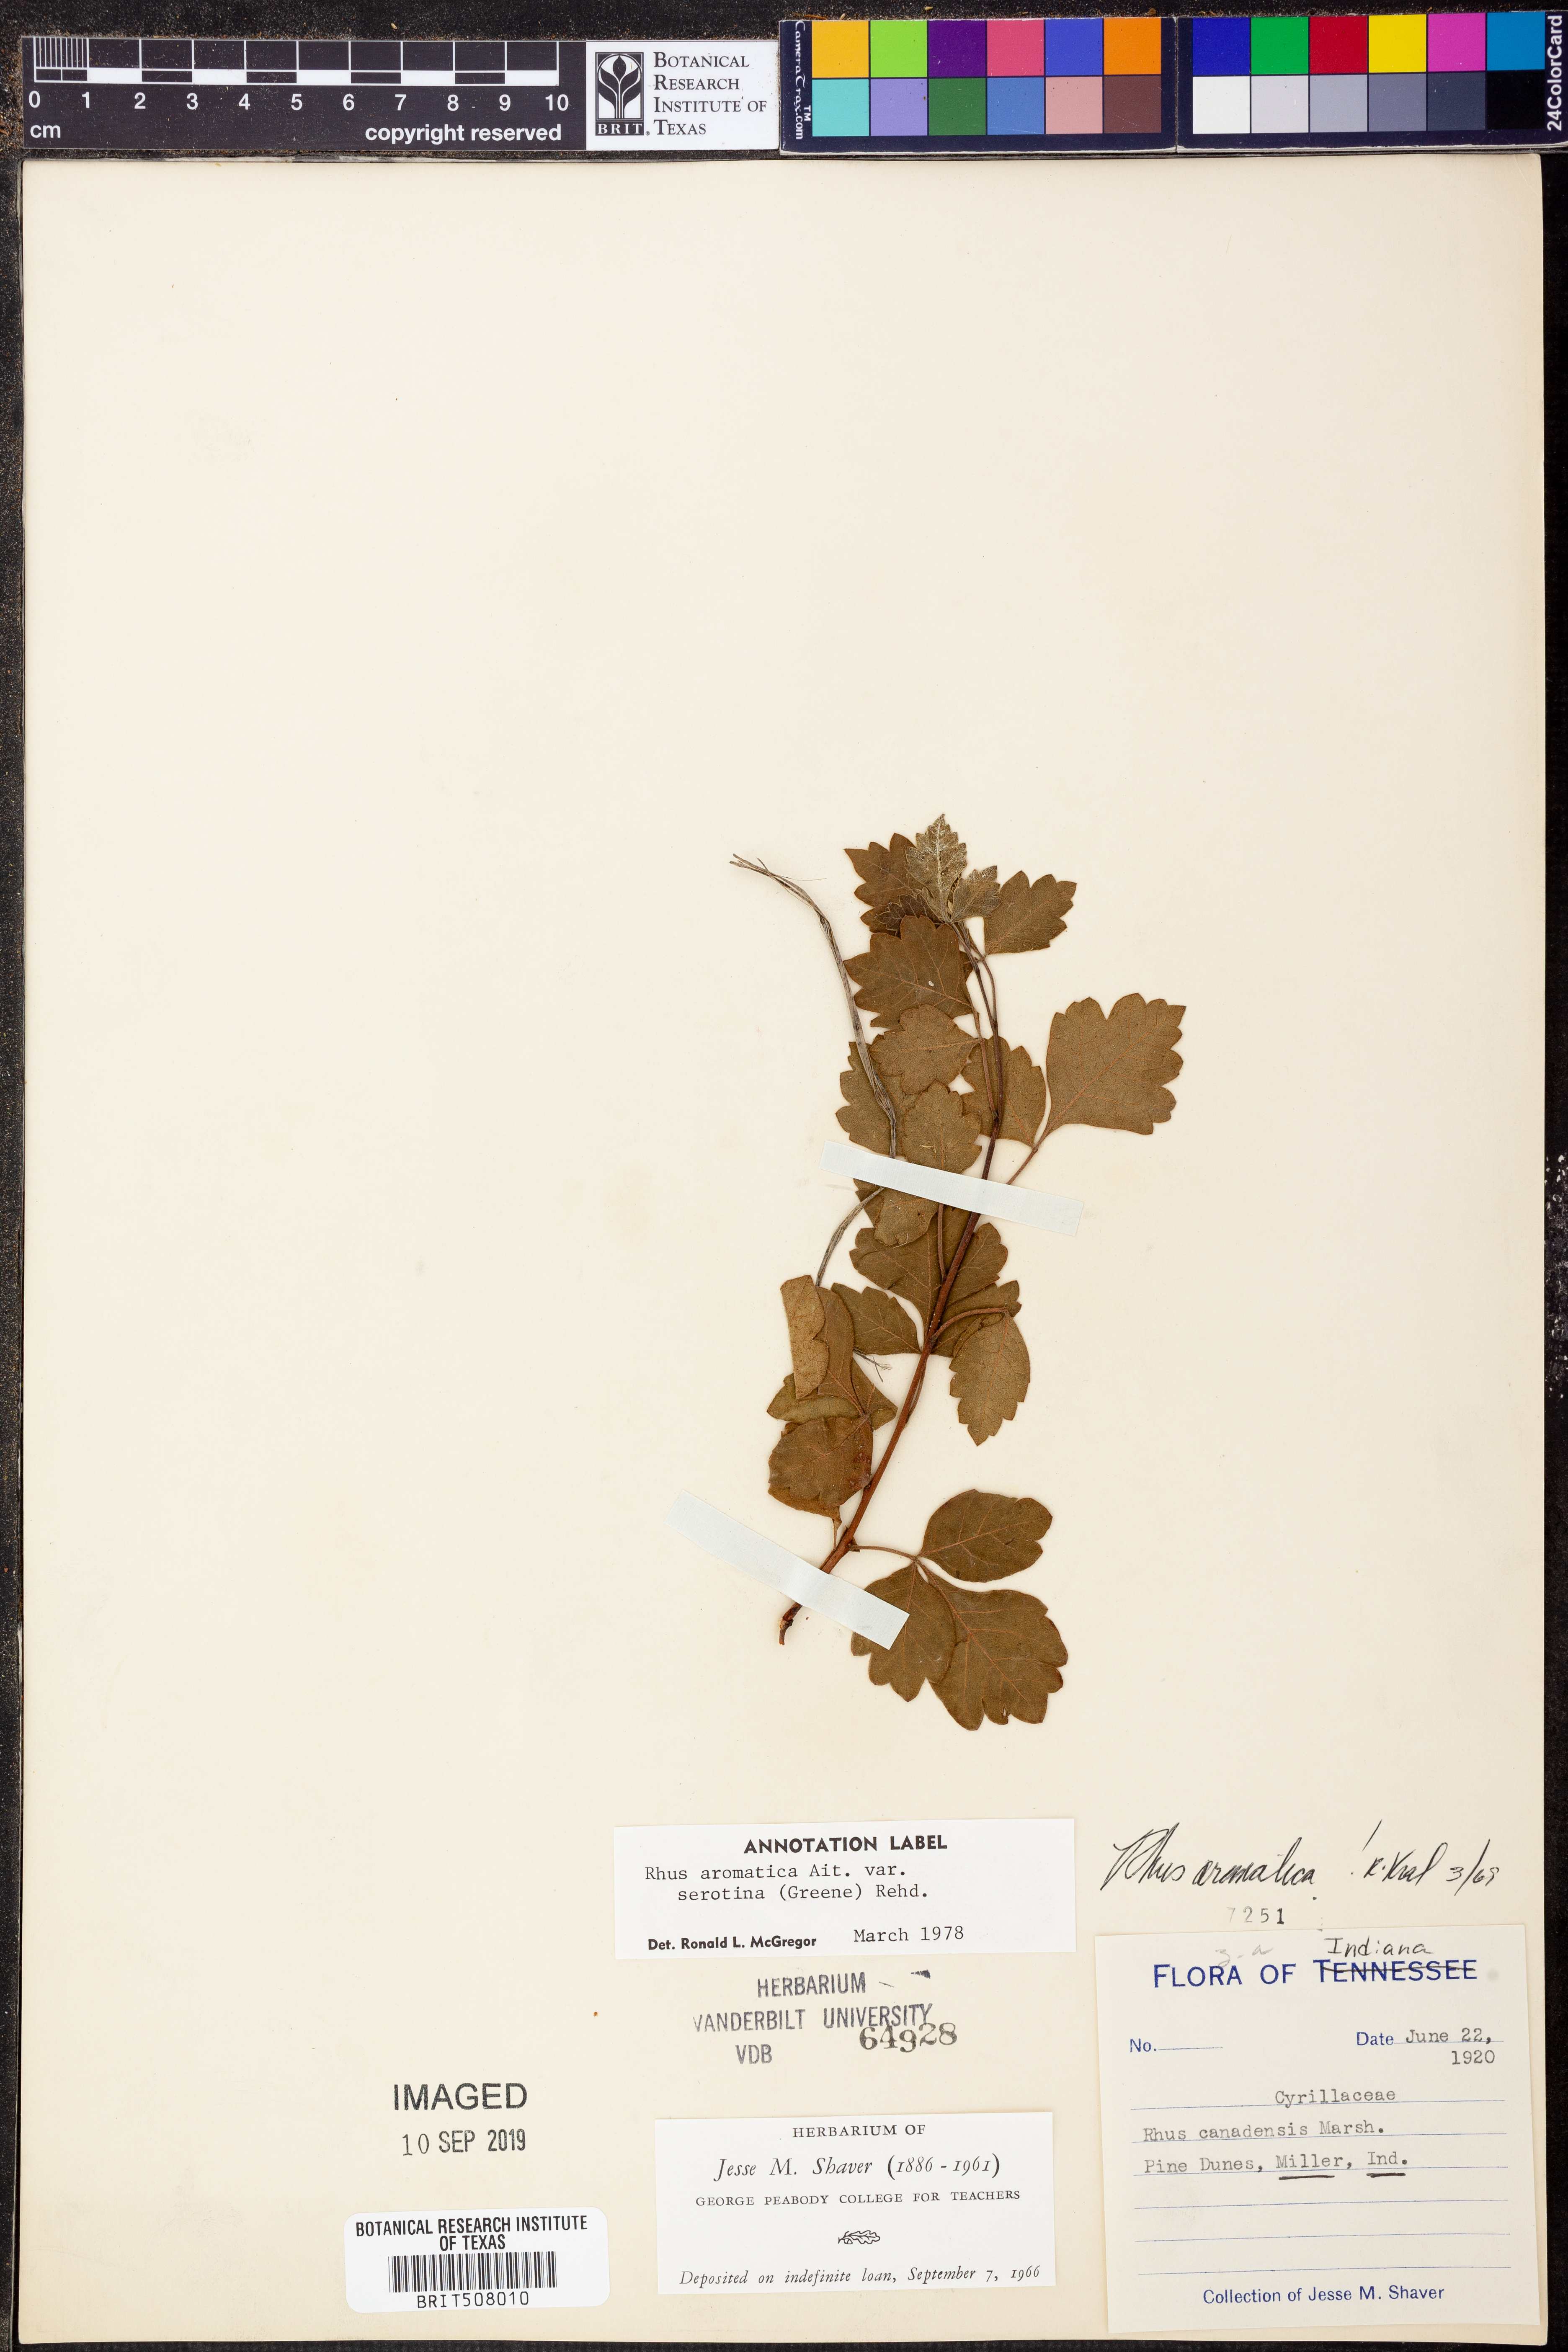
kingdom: Plantae
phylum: Tracheophyta
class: Magnoliopsida
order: Sapindales
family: Anacardiaceae
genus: Rhus
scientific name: Rhus aromatica
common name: Aromatic sumac
